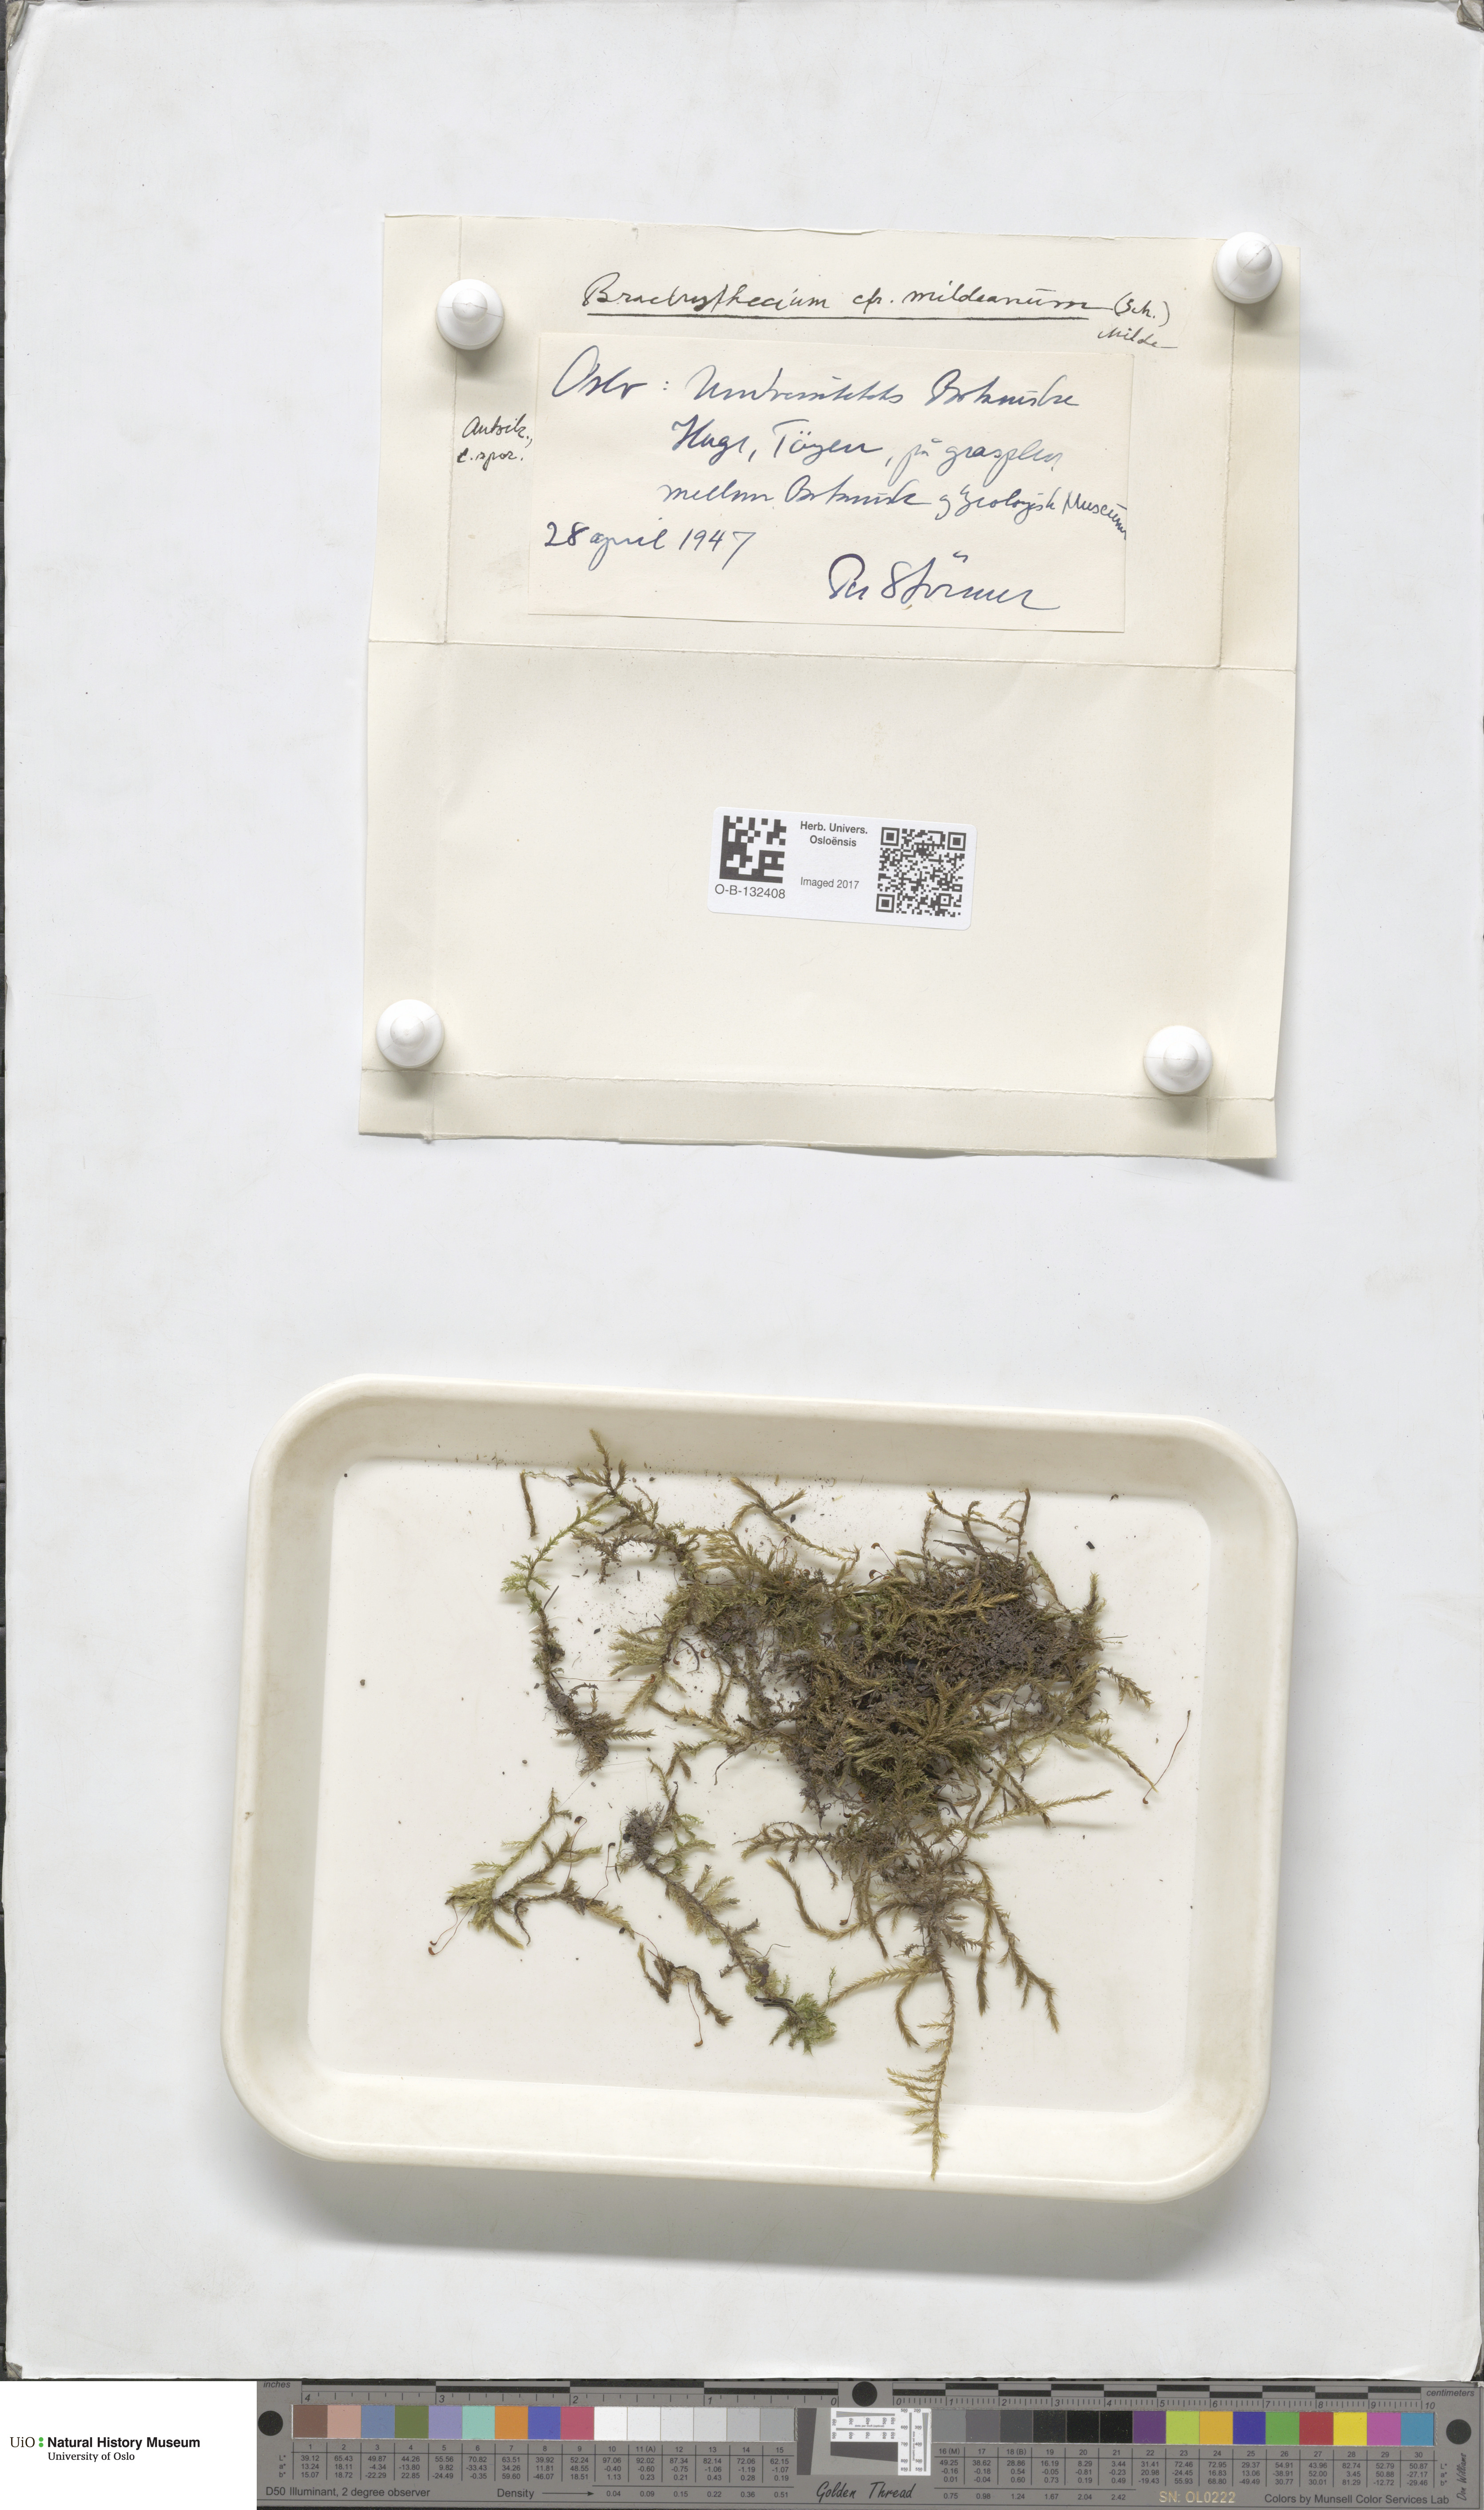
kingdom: Plantae
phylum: Bryophyta
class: Bryopsida
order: Hypnales
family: Brachytheciaceae
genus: Brachythecium
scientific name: Brachythecium mildeanum
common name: Sand feather-moss
